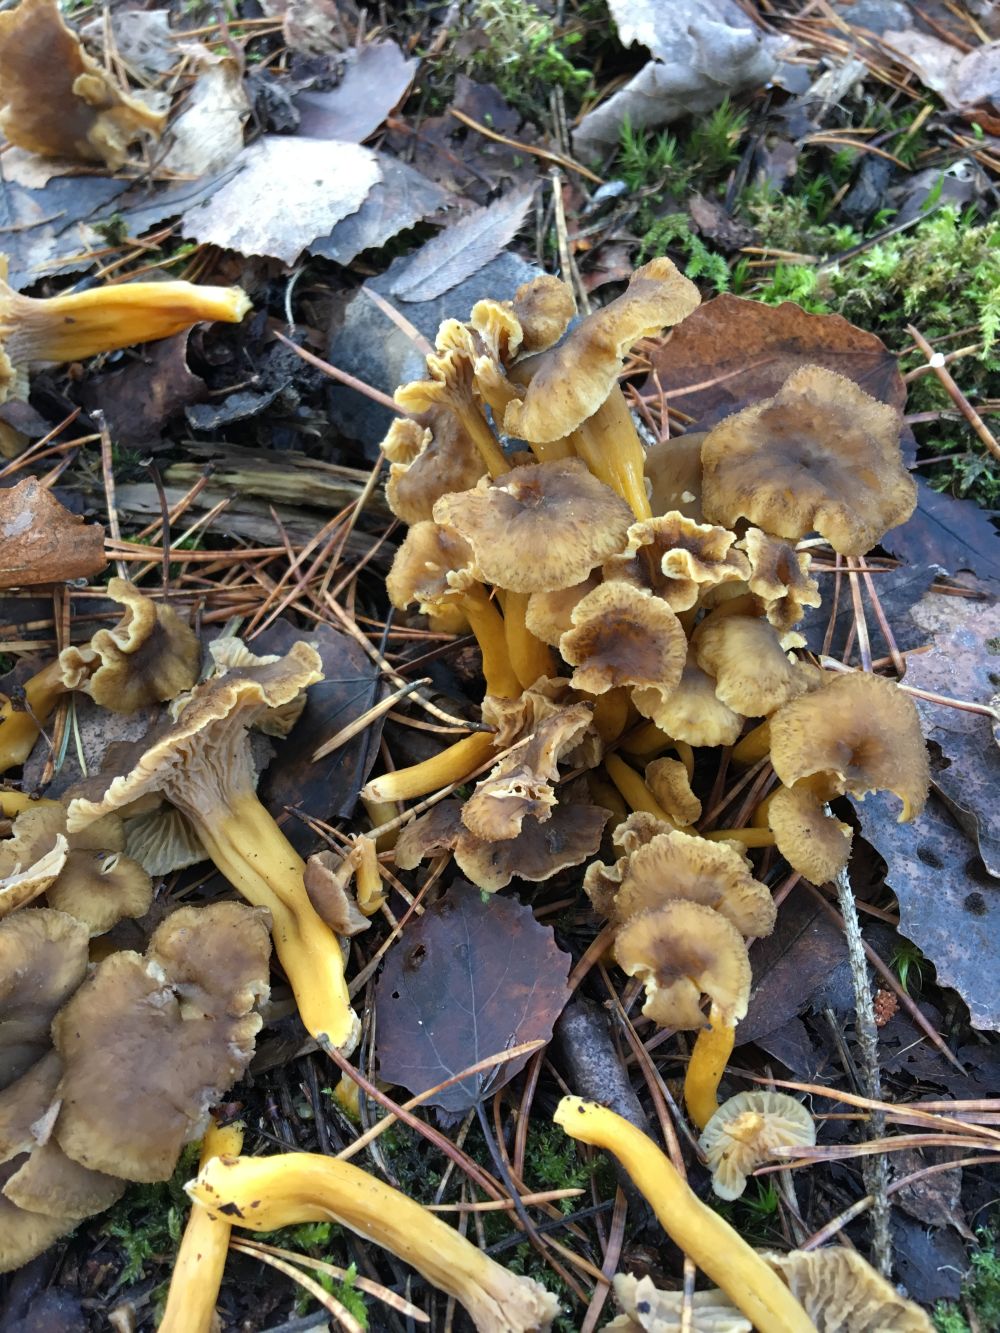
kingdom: Fungi
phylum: Basidiomycota
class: Agaricomycetes
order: Cantharellales
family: Hydnaceae
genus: Craterellus
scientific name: Craterellus tubaeformis
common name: Yellowfoot
